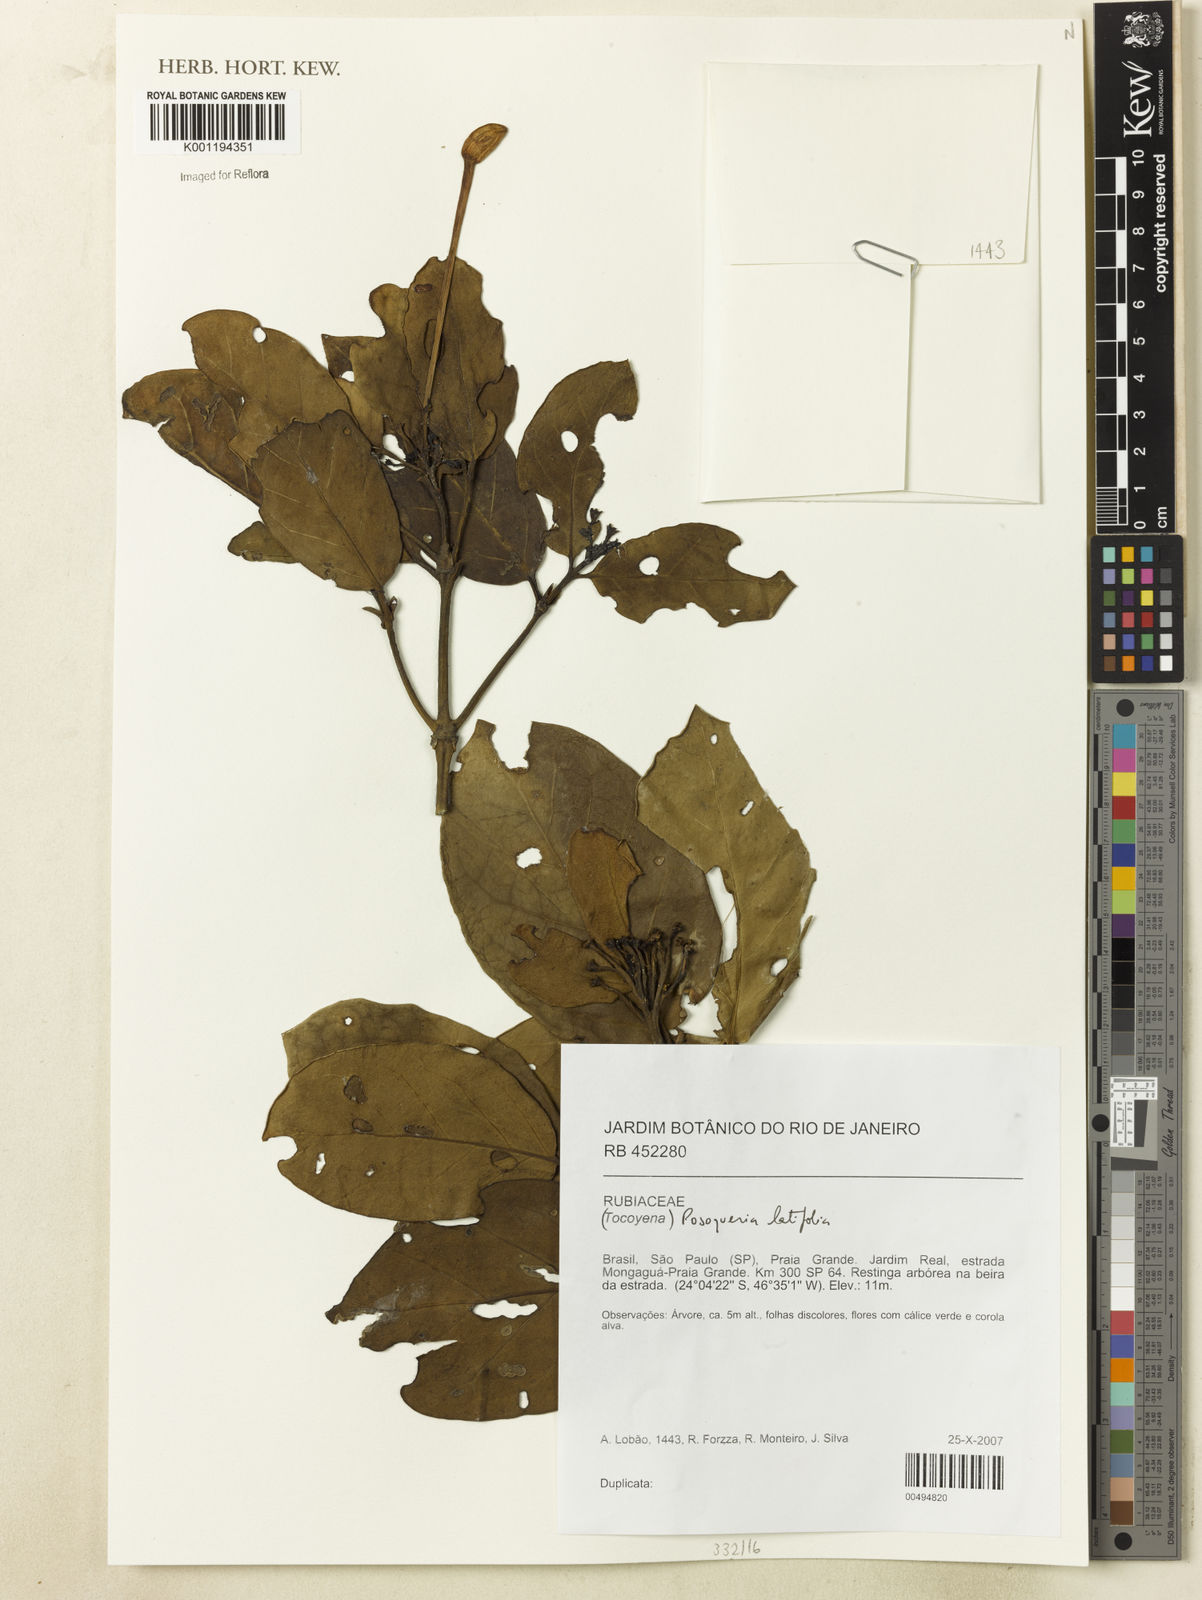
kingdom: Plantae
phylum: Tracheophyta
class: Magnoliopsida
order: Gentianales
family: Rubiaceae
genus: Posoqueria
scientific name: Posoqueria latifolia
